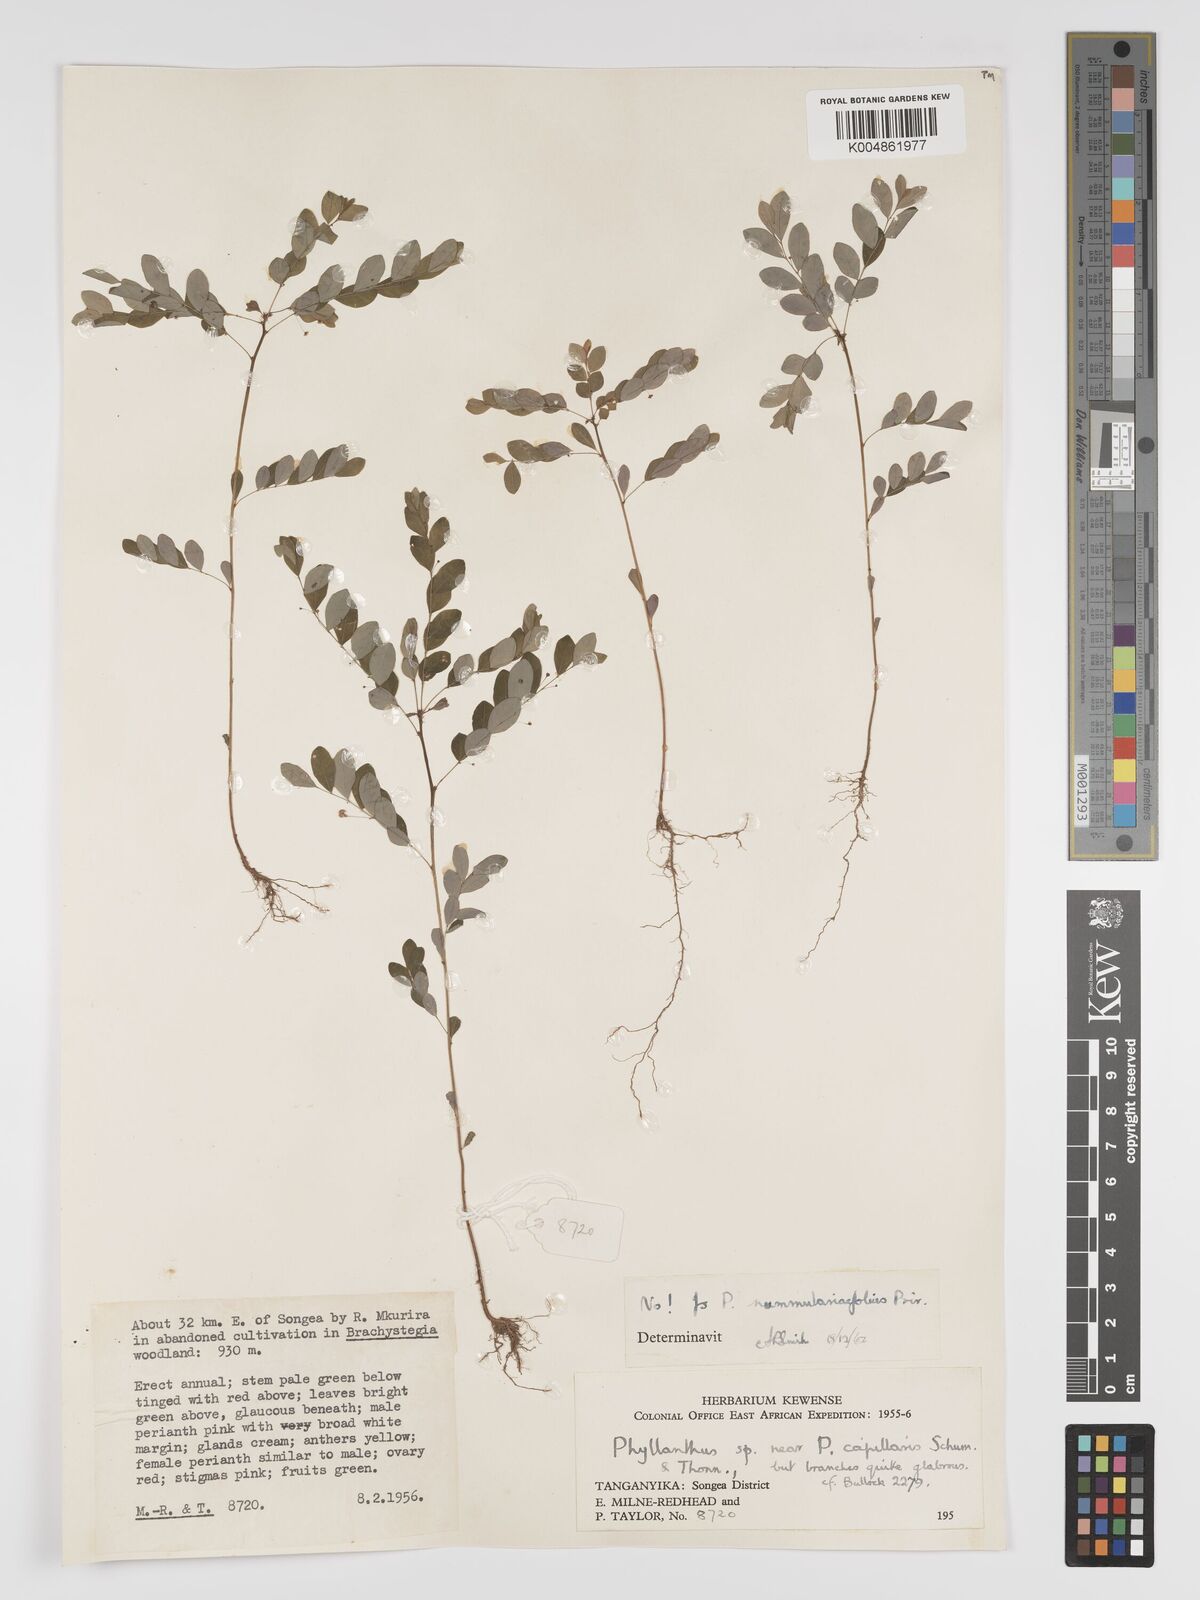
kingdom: Plantae
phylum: Tracheophyta
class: Magnoliopsida
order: Malpighiales
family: Phyllanthaceae
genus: Phyllanthus
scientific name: Phyllanthus nummulariifolius
